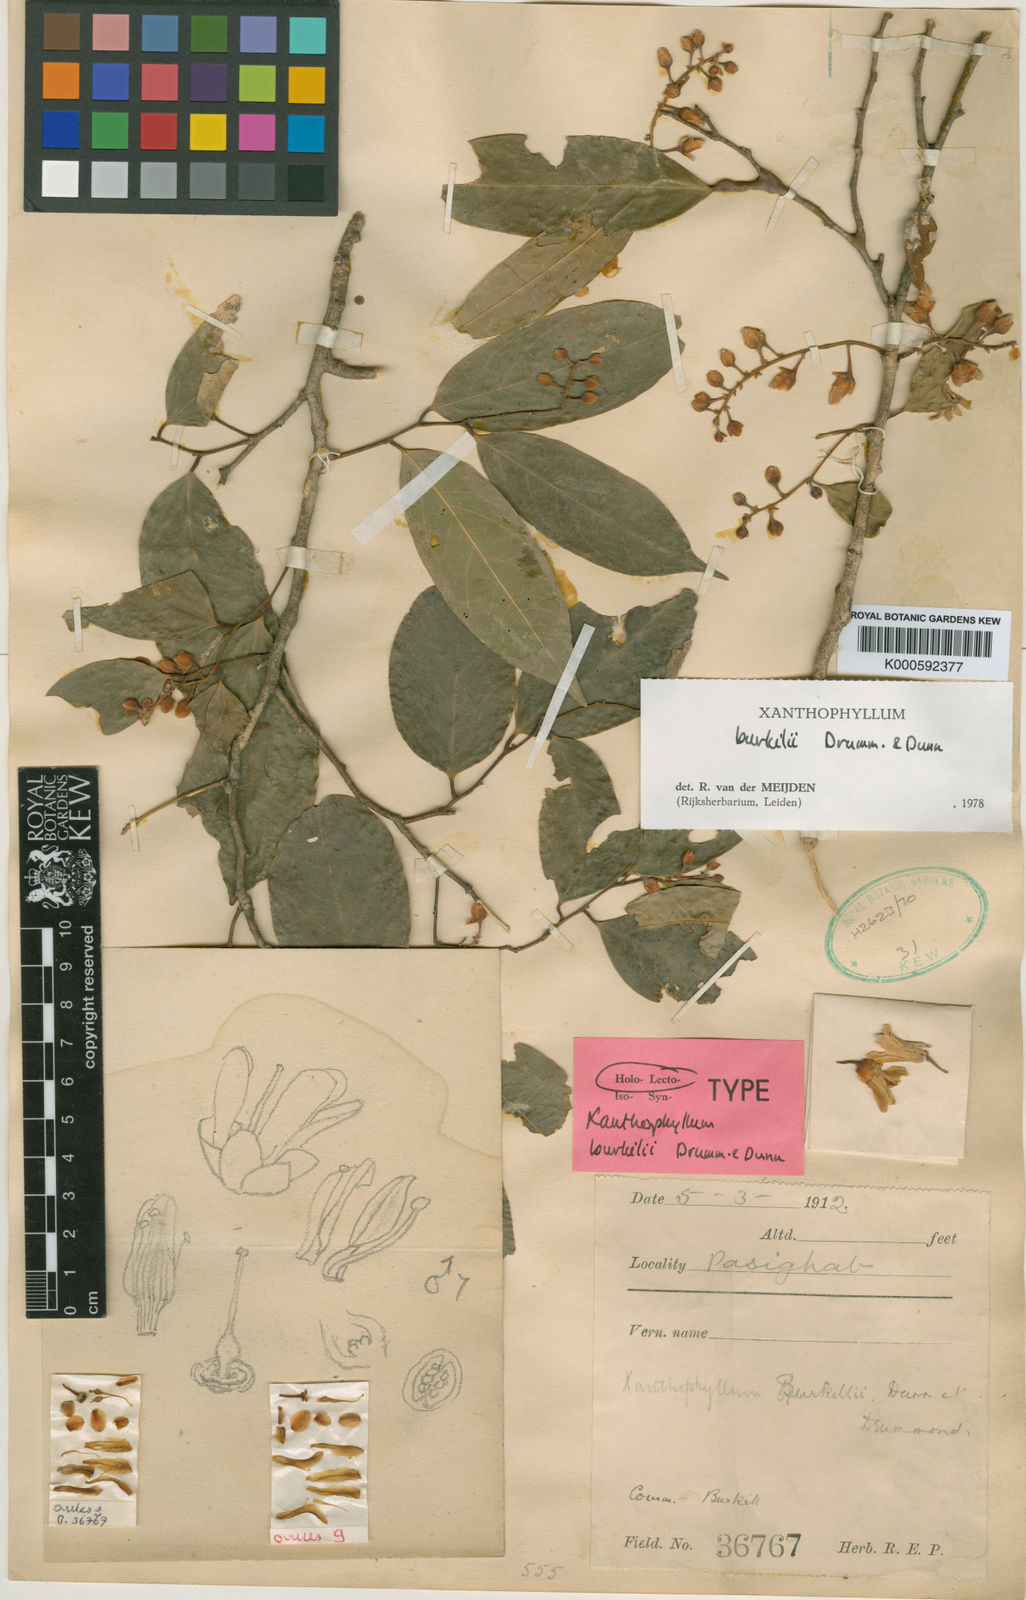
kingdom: Plantae
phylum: Tracheophyta
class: Magnoliopsida
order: Fabales
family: Polygalaceae
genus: Xanthophyllum
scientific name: Xanthophyllum burkillii
